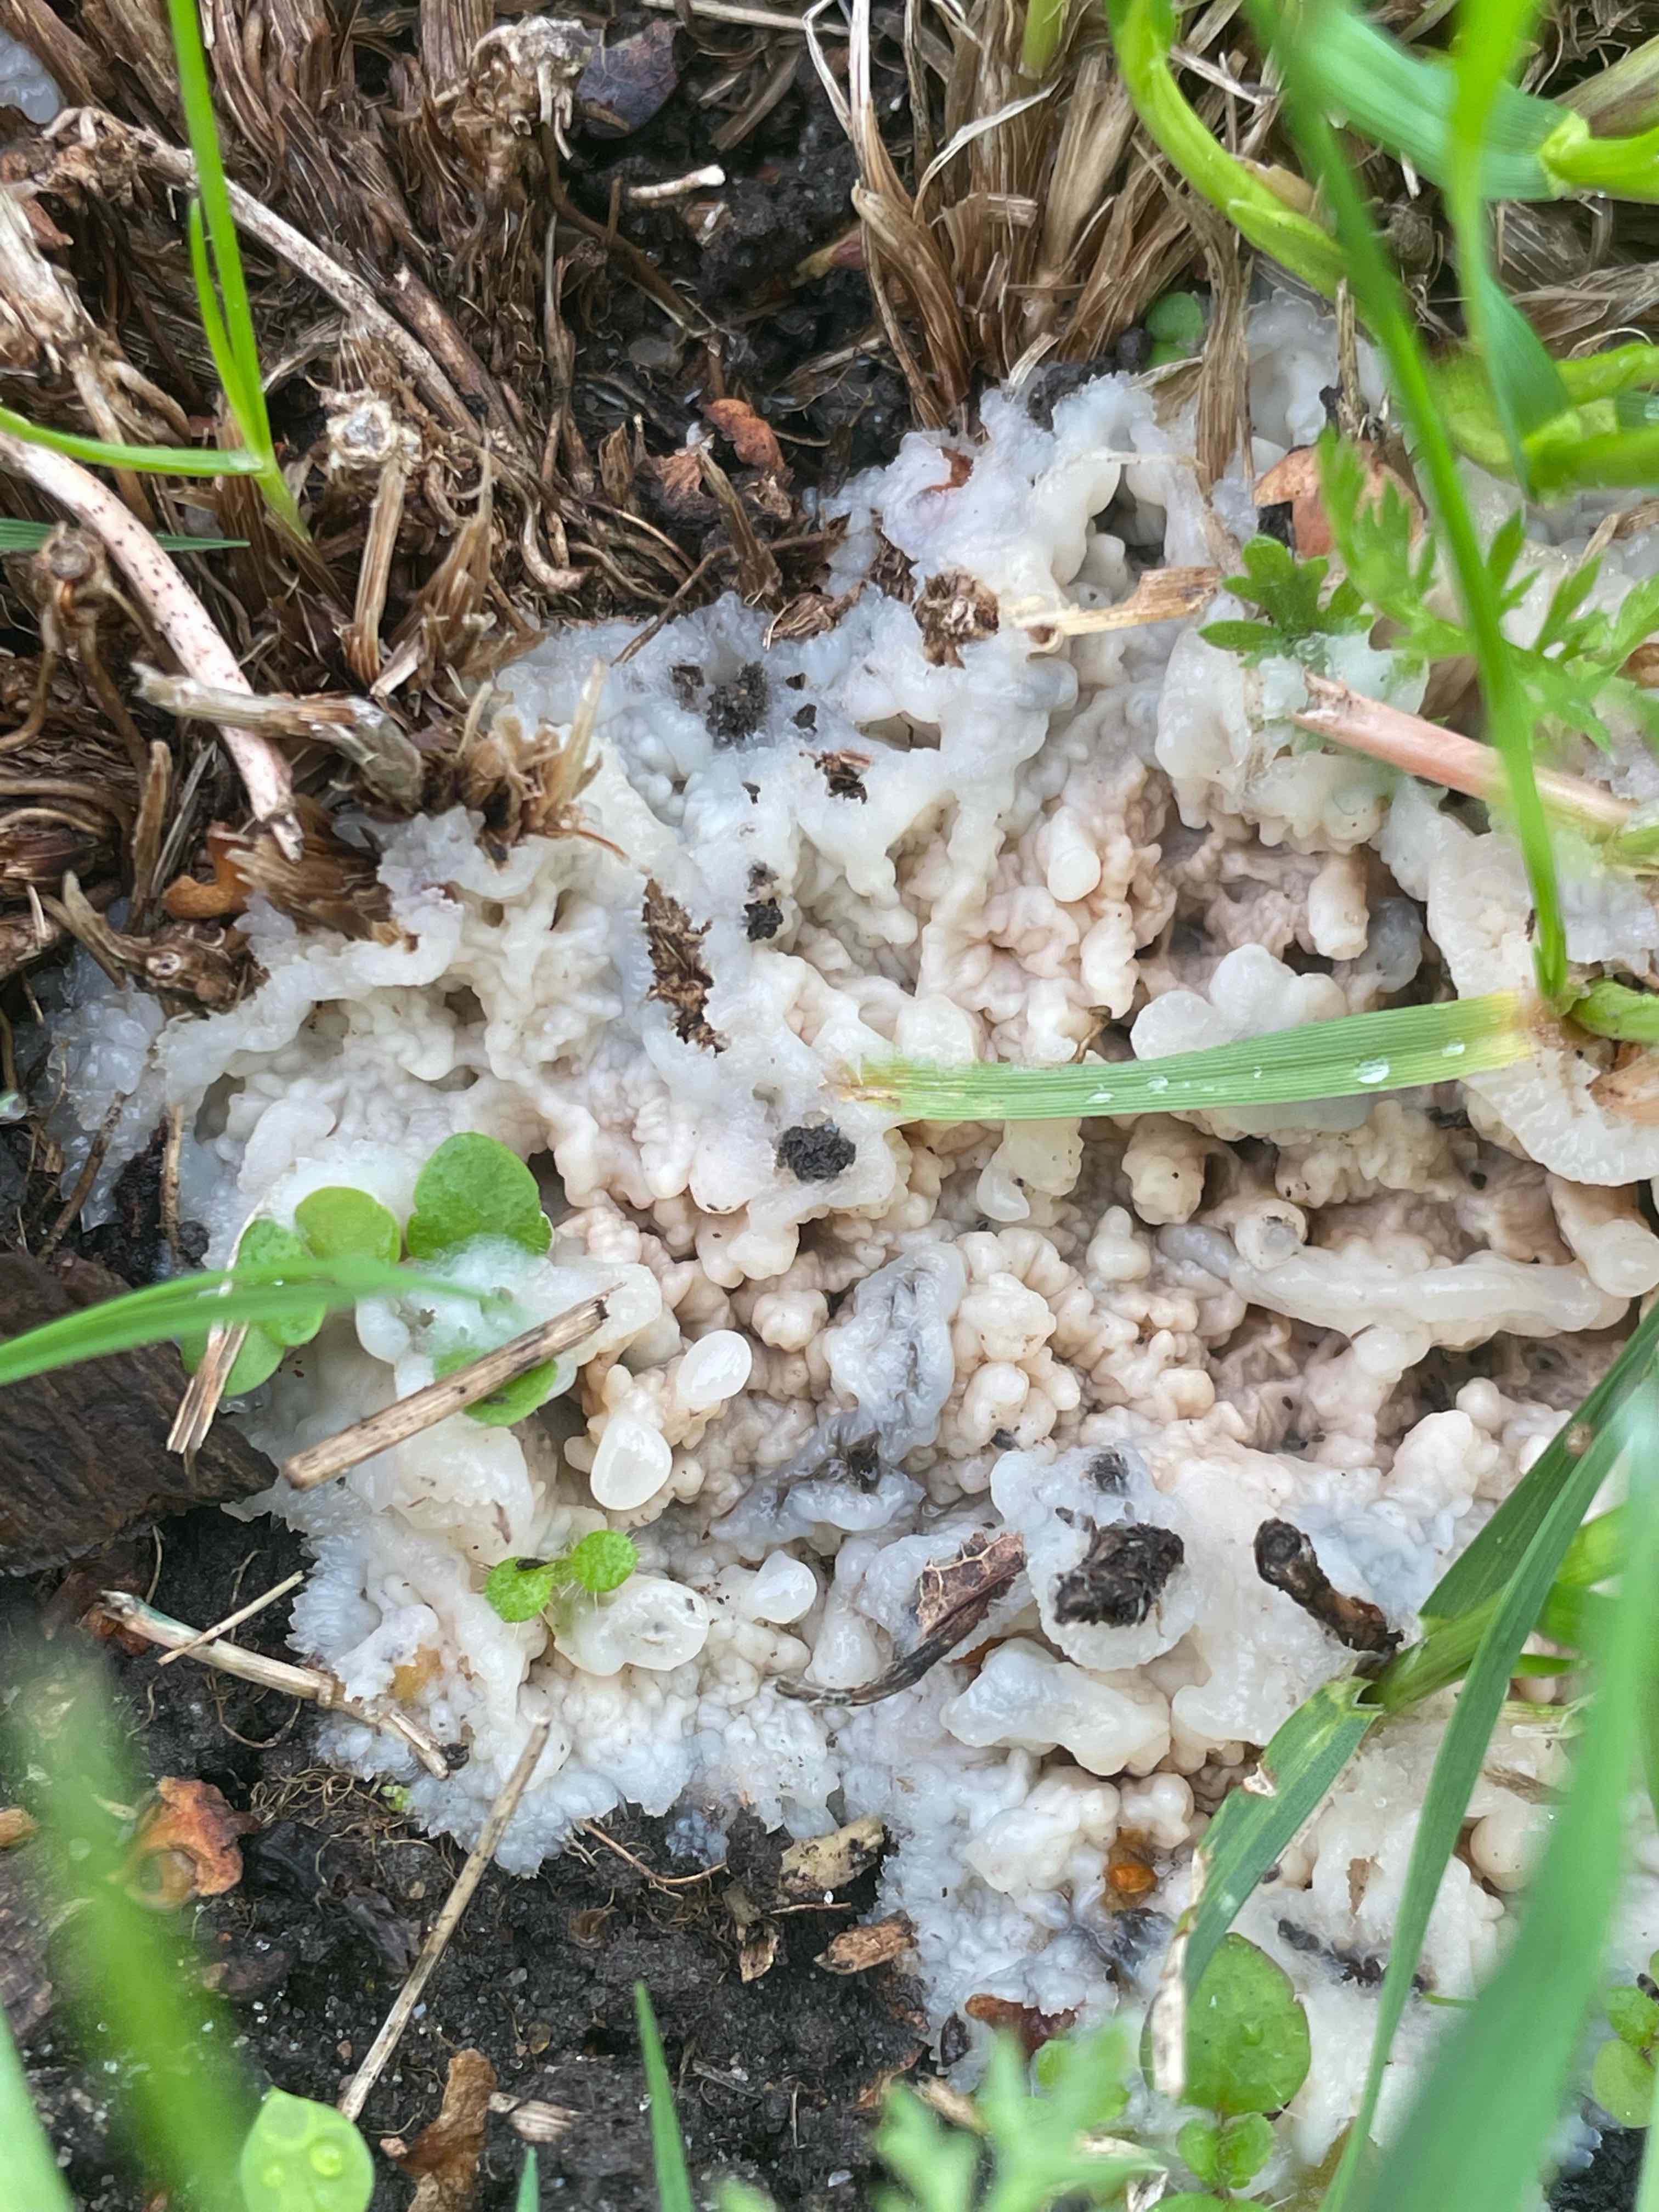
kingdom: Fungi
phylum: Basidiomycota
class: Agaricomycetes
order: Polyporales
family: Meruliaceae
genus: Phlebia
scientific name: Phlebia tremellosa
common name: bævrende åresvamp
